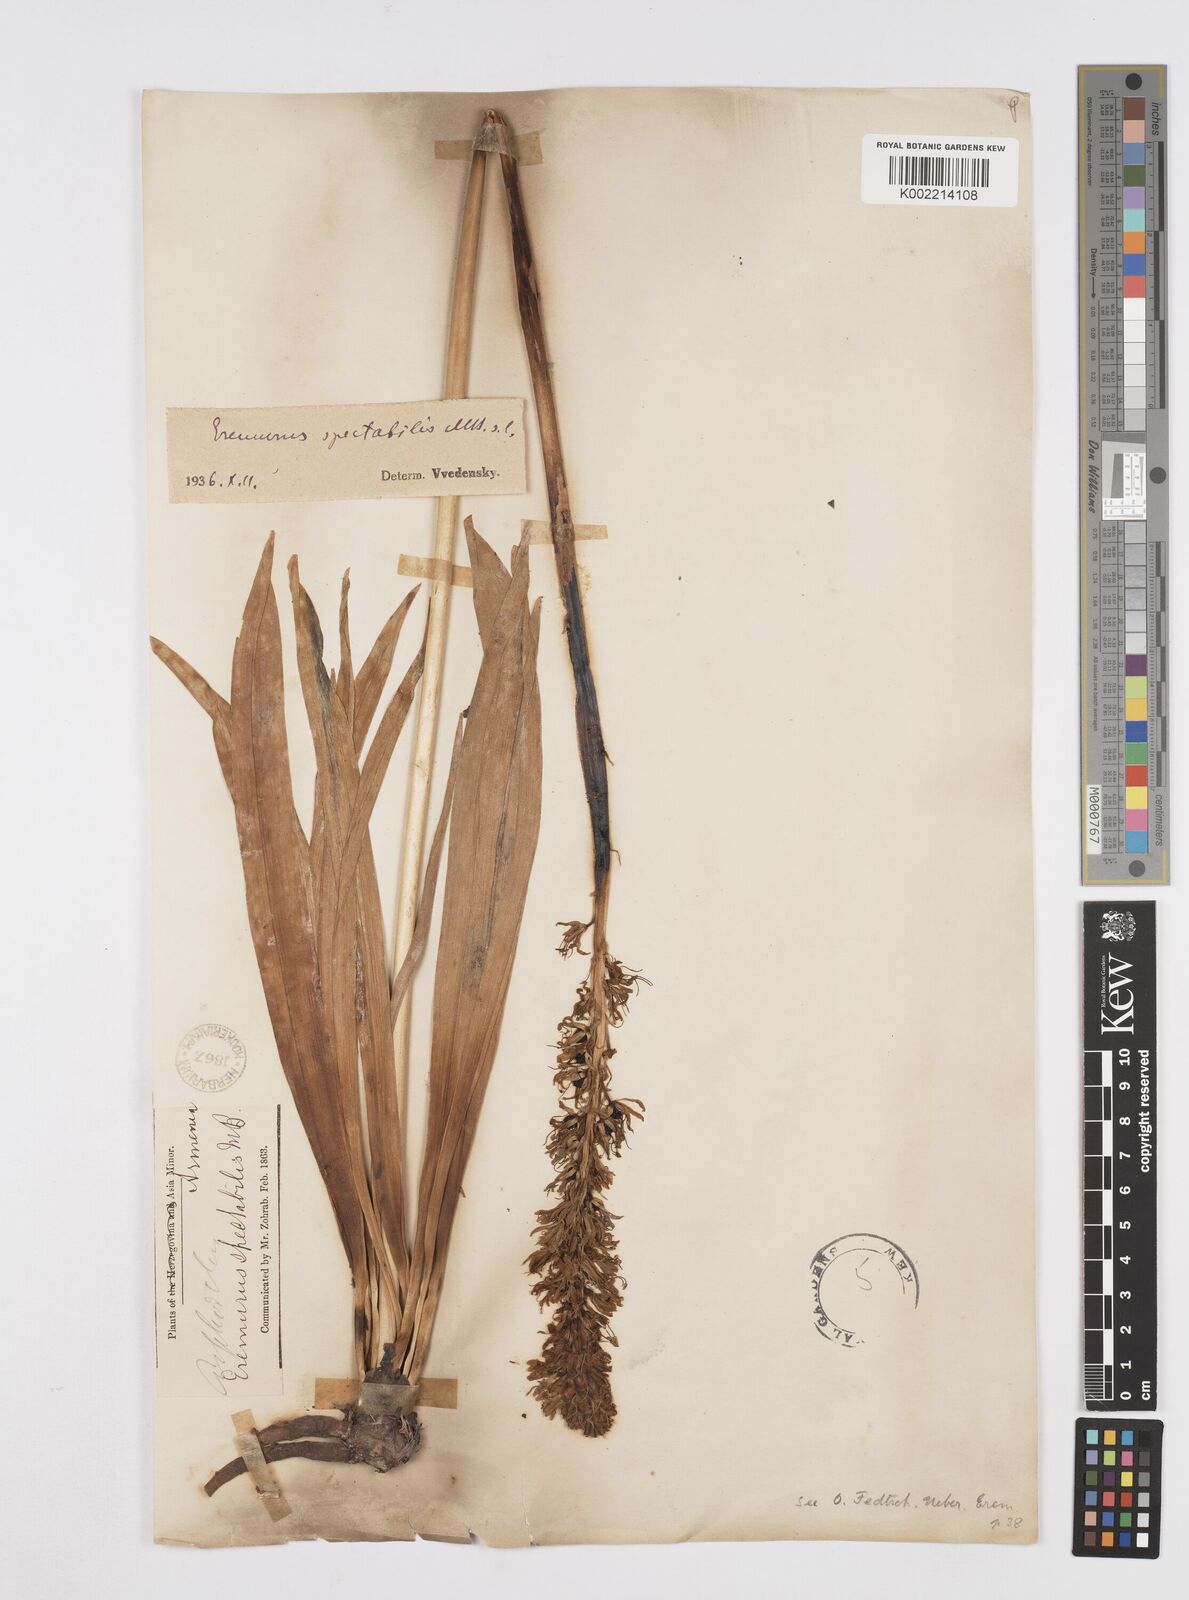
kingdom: Plantae
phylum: Tracheophyta
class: Liliopsida
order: Asparagales
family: Asphodelaceae
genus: Eremurus
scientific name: Eremurus spectabilis
